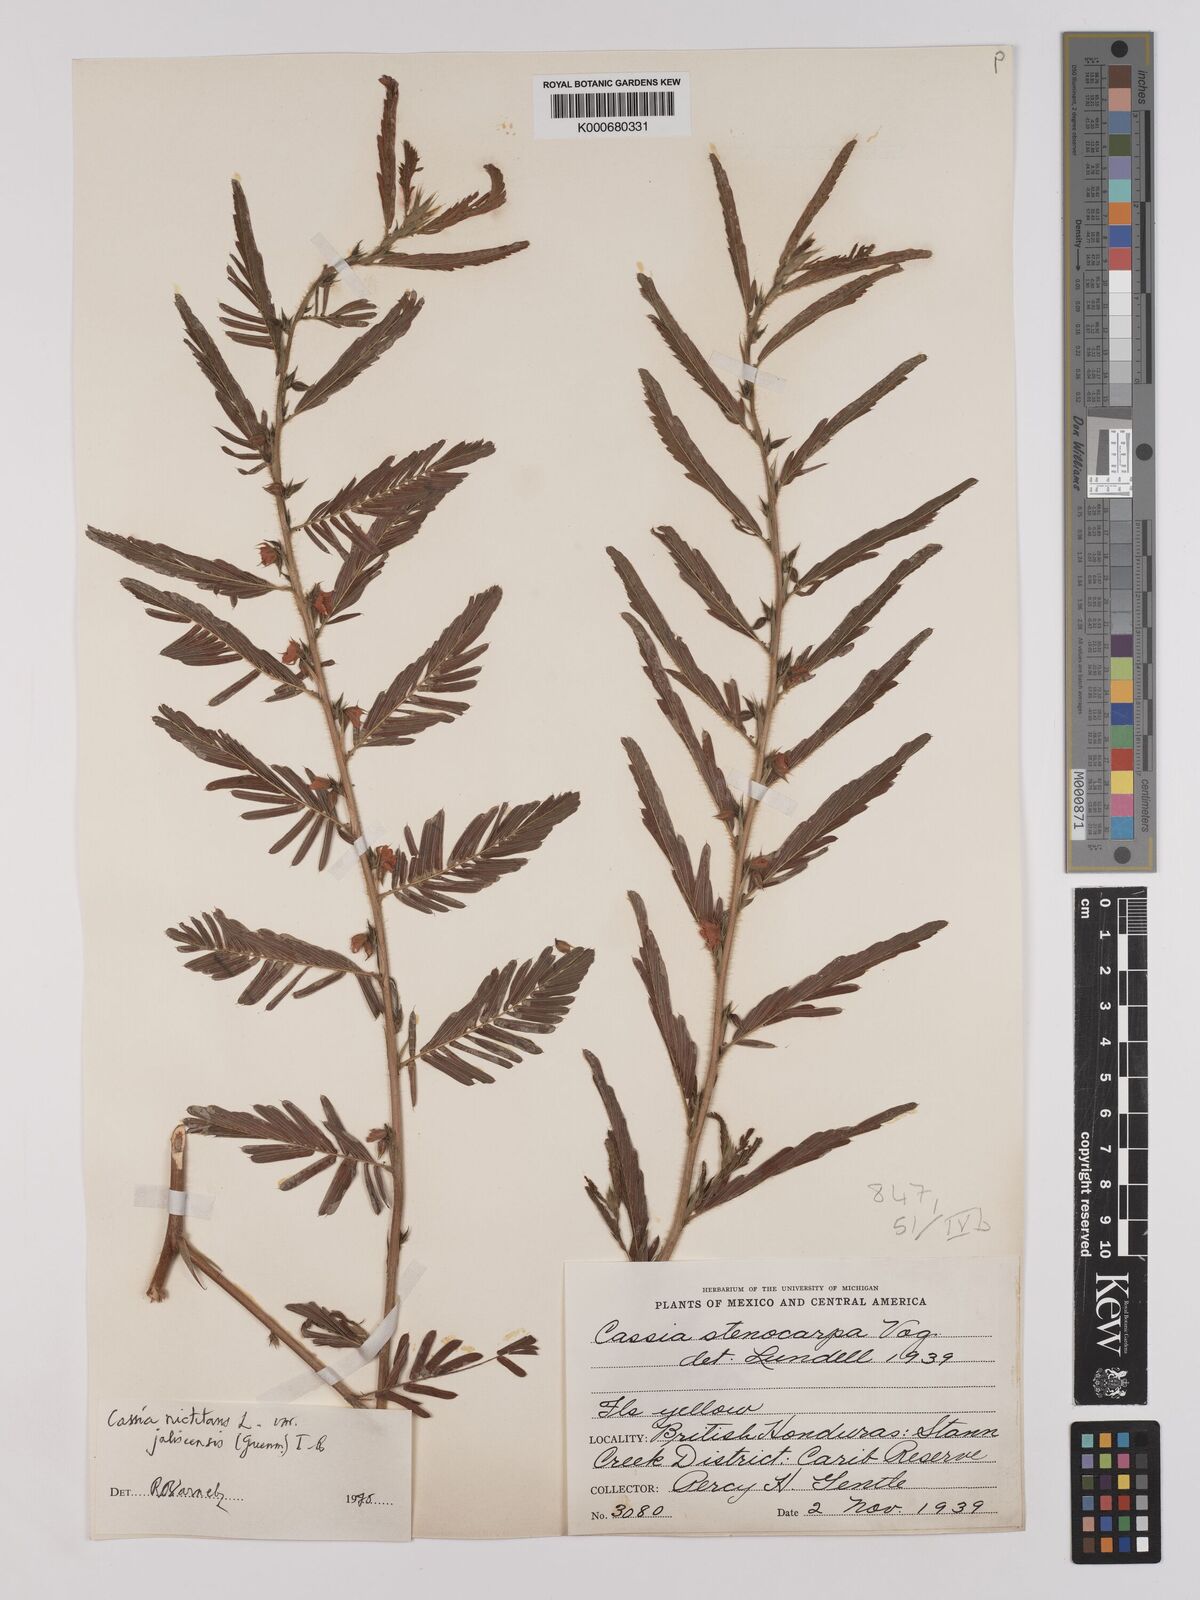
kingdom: Plantae
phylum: Tracheophyta
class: Magnoliopsida
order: Fabales
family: Fabaceae
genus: Chamaecrista
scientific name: Chamaecrista nictitans
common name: Sensitive cassia
